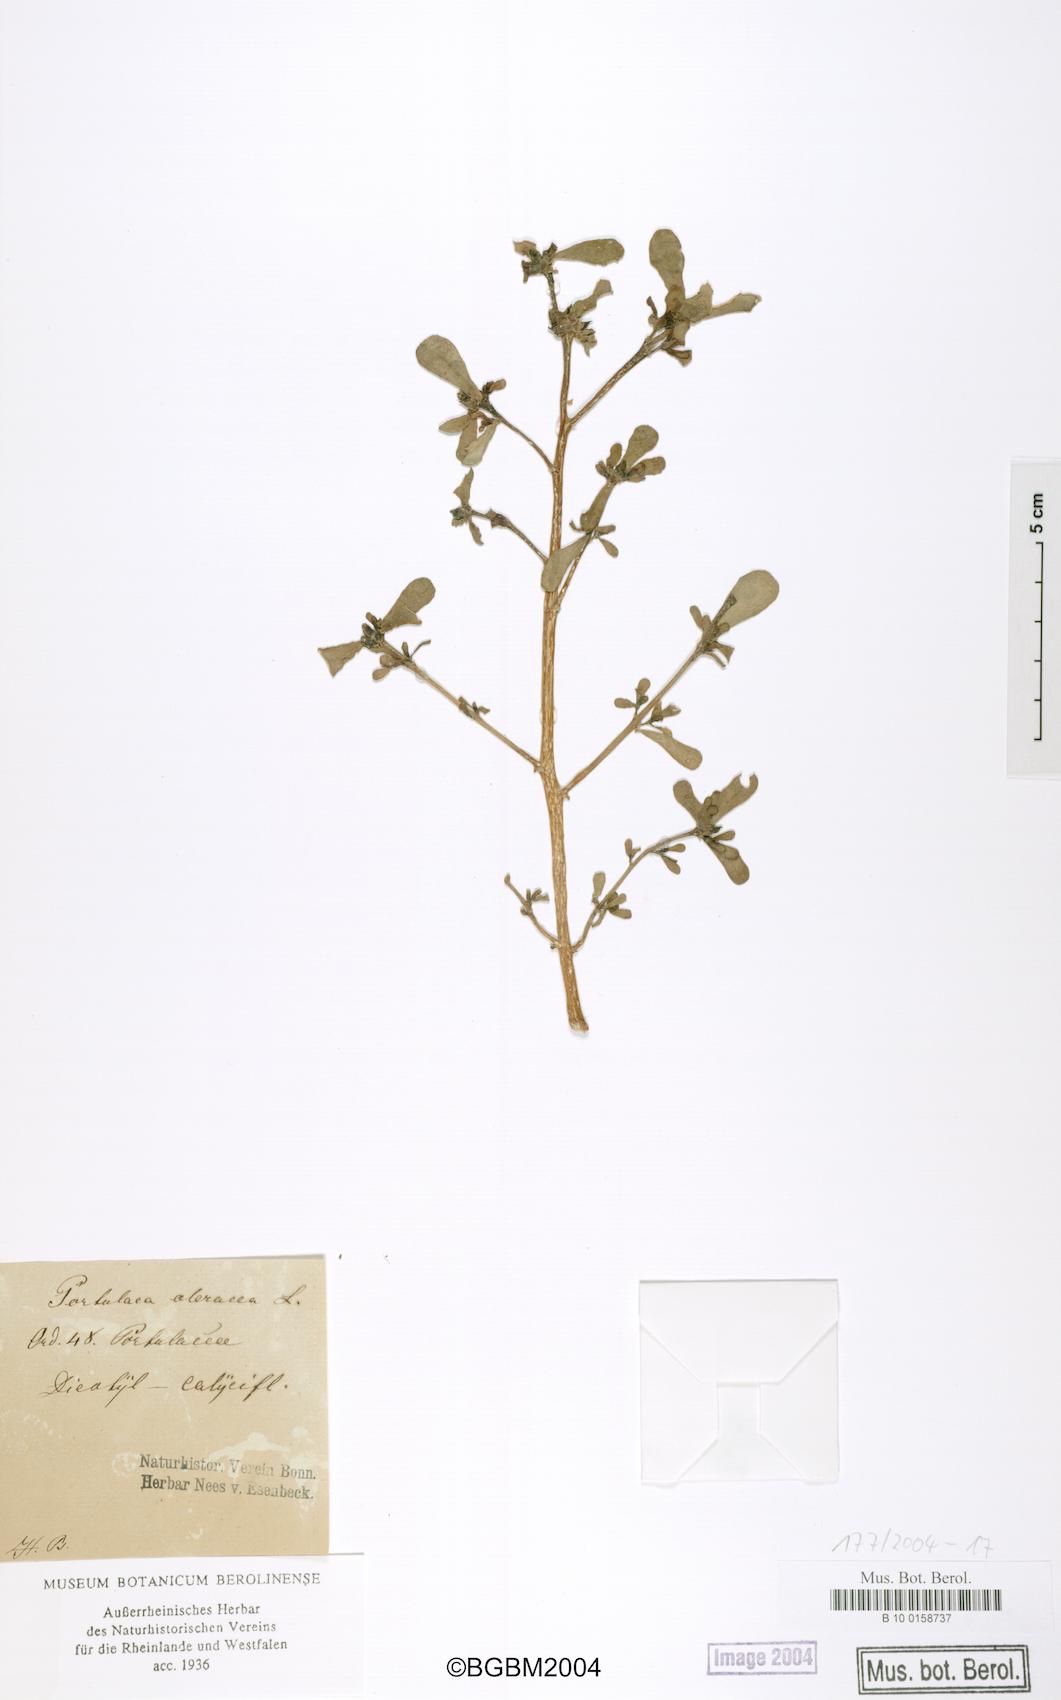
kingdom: Plantae
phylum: Tracheophyta
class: Magnoliopsida
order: Caryophyllales
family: Portulacaceae
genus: Portulaca
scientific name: Portulaca oleracea
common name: Common purslane
